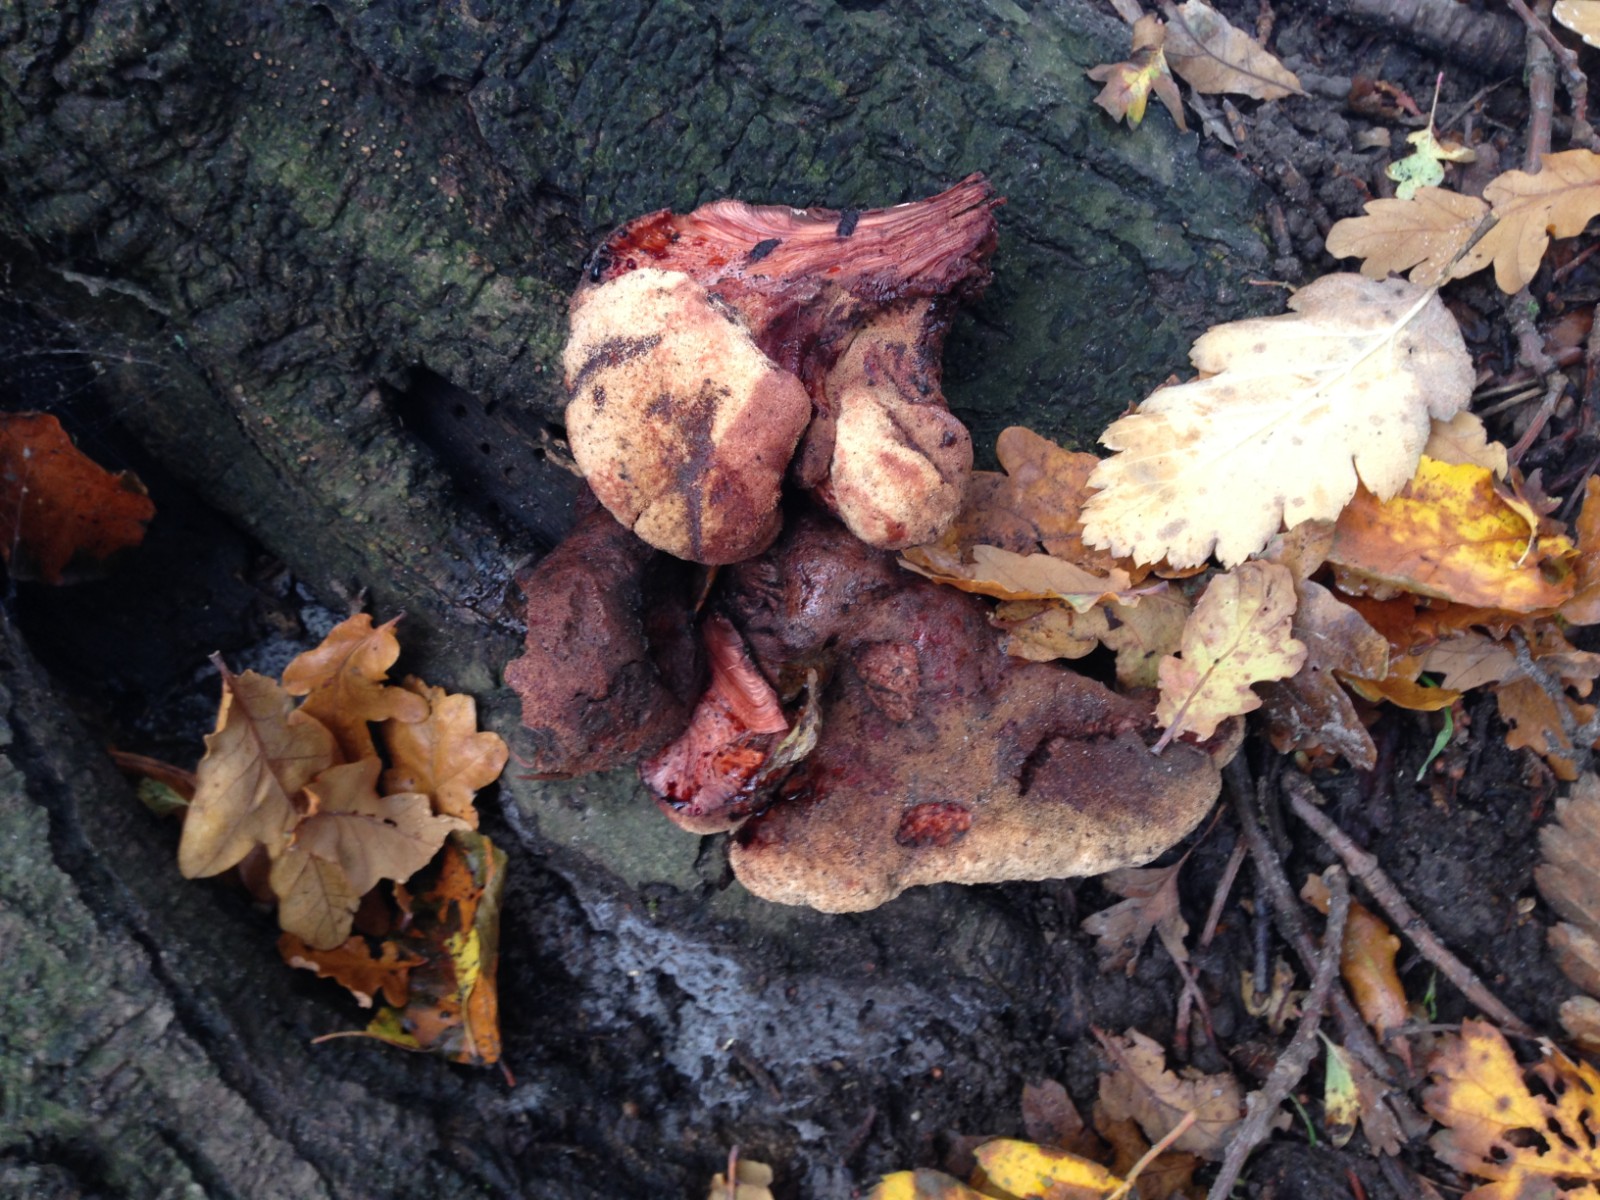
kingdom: Fungi
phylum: Basidiomycota
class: Agaricomycetes
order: Agaricales
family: Fistulinaceae
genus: Fistulina
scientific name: Fistulina hepatica
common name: oksetunge
